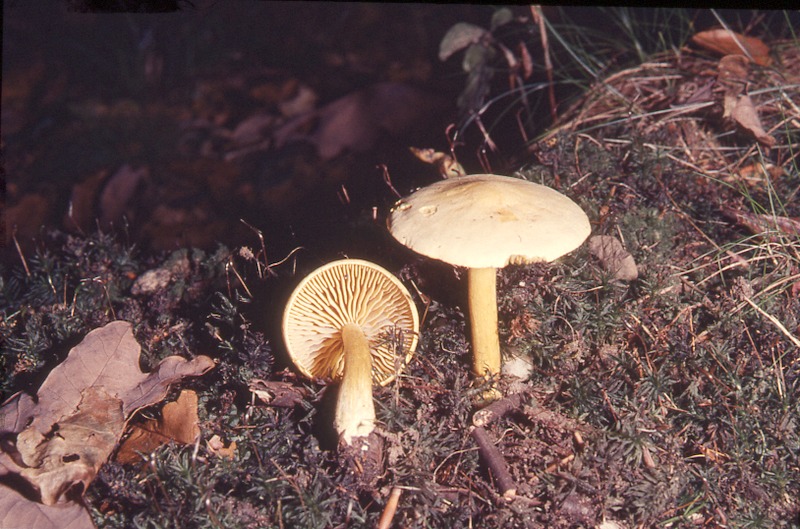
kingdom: Fungi
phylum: Basidiomycota
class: Agaricomycetes
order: Agaricales
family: Tricholomataceae
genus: Tricholoma
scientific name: Tricholoma sulphureum
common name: Stinky knight
